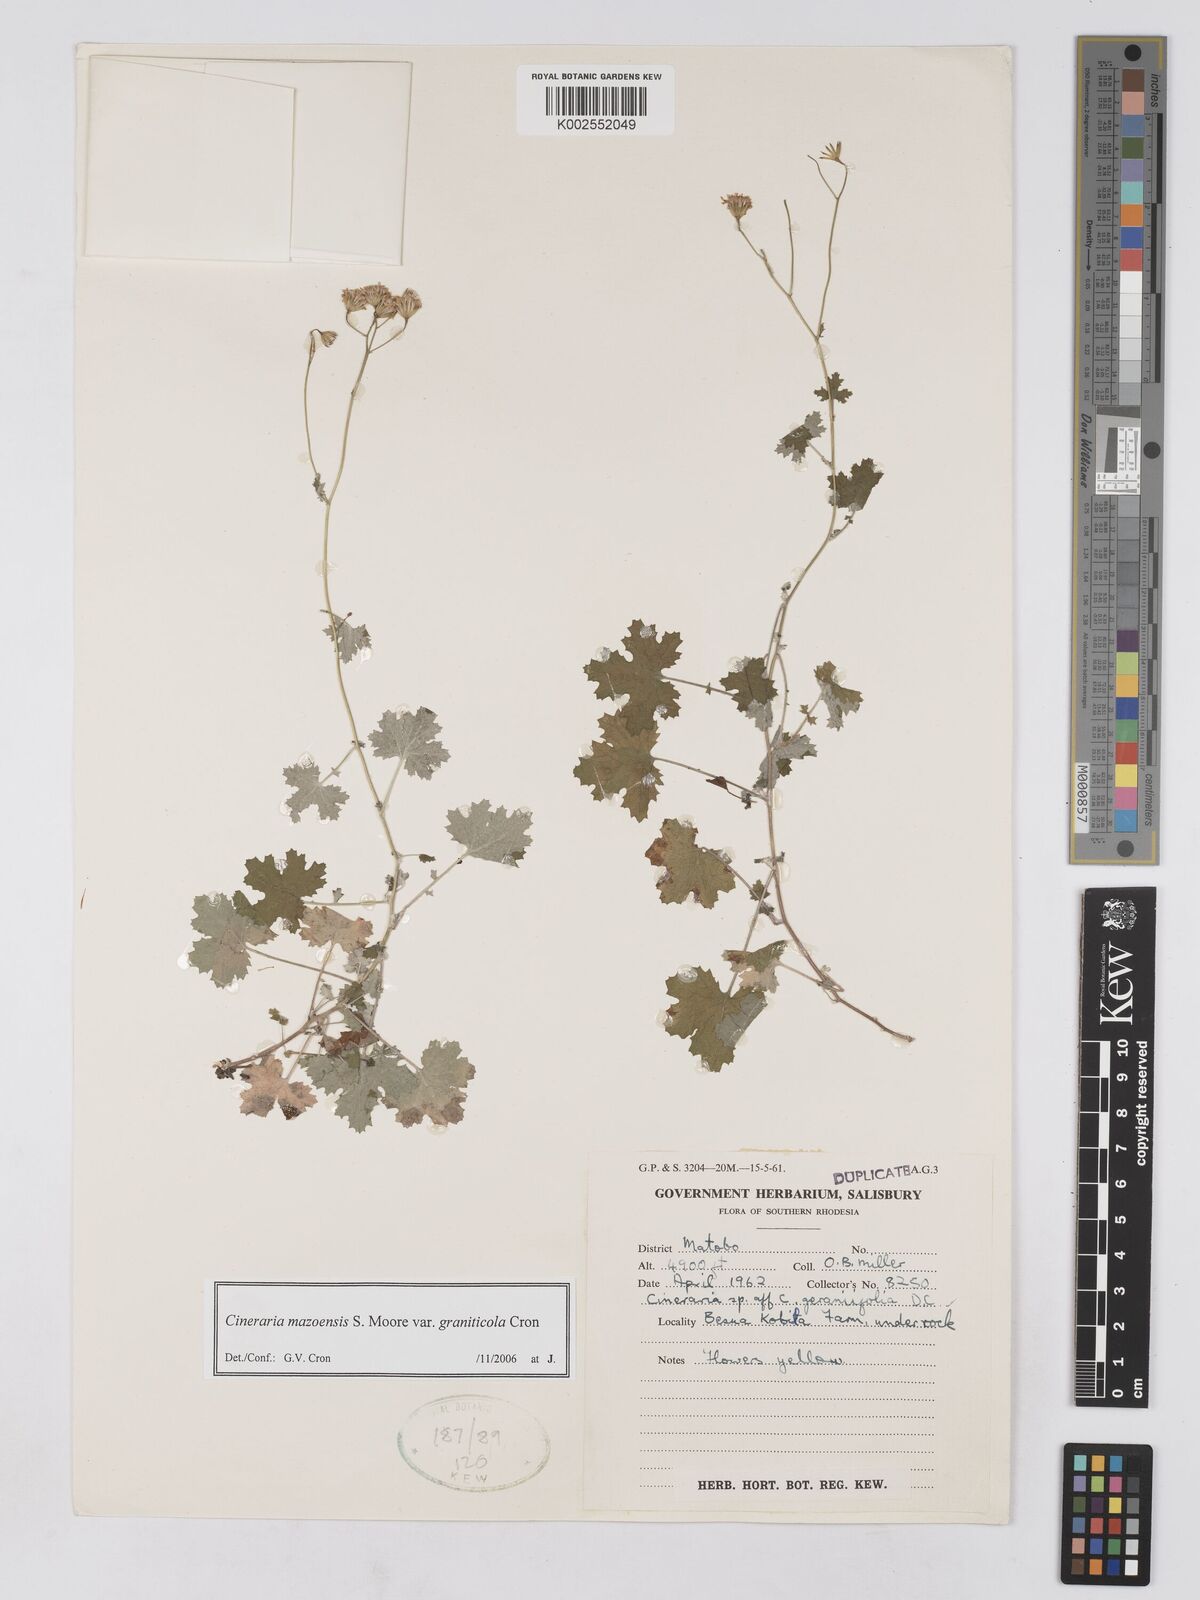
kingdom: Plantae
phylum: Tracheophyta
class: Magnoliopsida
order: Asterales
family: Asteraceae
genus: Cineraria
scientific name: Cineraria mazoensis
